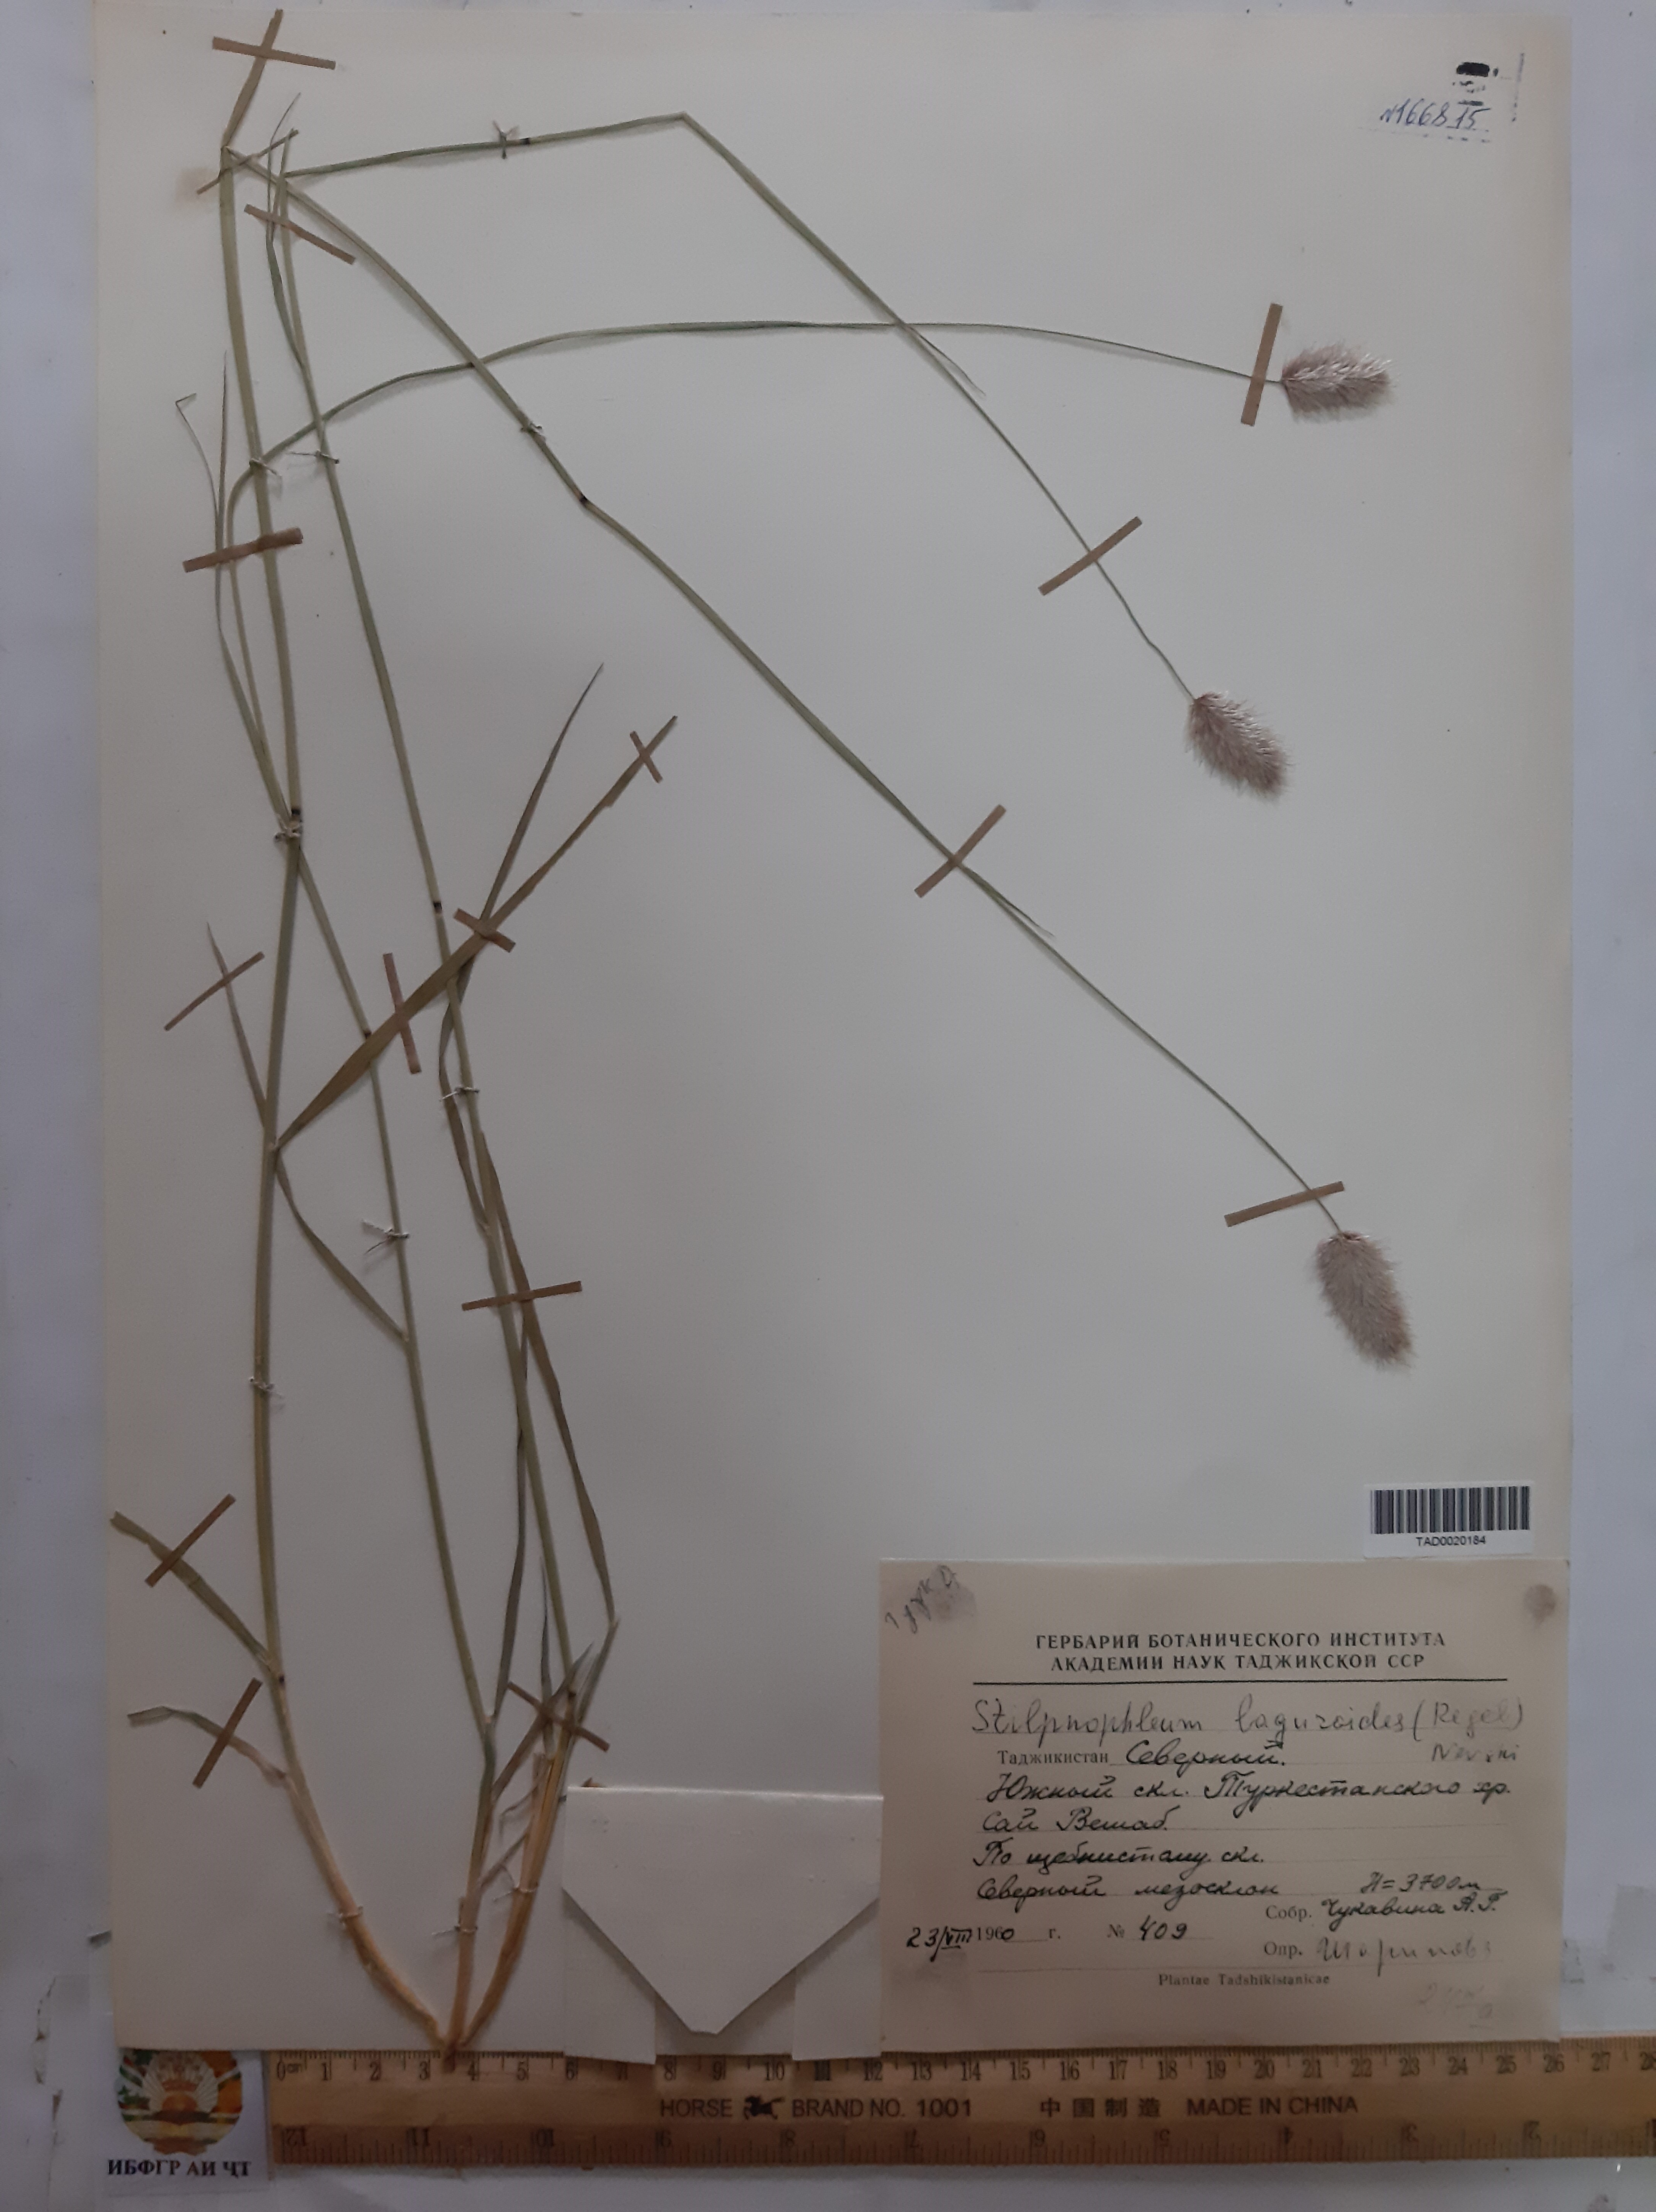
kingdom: Plantae
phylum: Tracheophyta
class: Liliopsida
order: Poales
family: Poaceae
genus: Calamagrostis
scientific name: Calamagrostis anthoxanthoides
